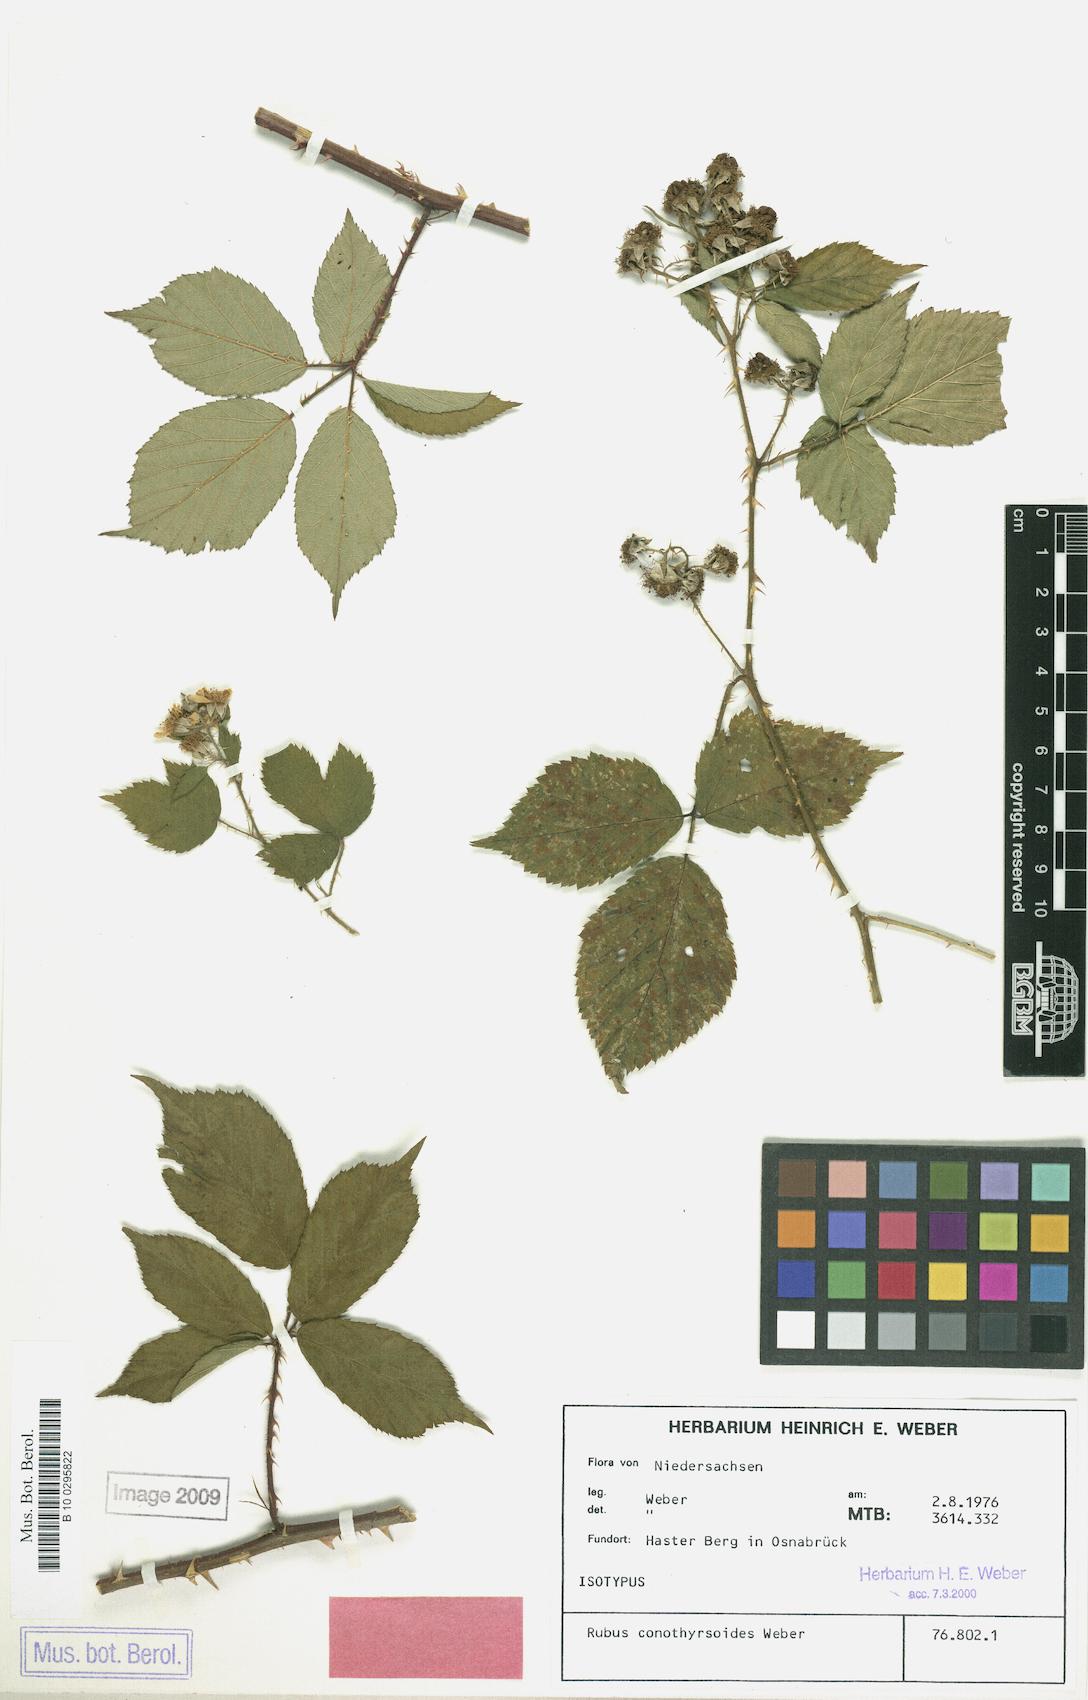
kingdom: Plantae
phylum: Tracheophyta
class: Magnoliopsida
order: Rosales
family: Rosaceae
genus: Rubus
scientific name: Rubus conothyrsoides
